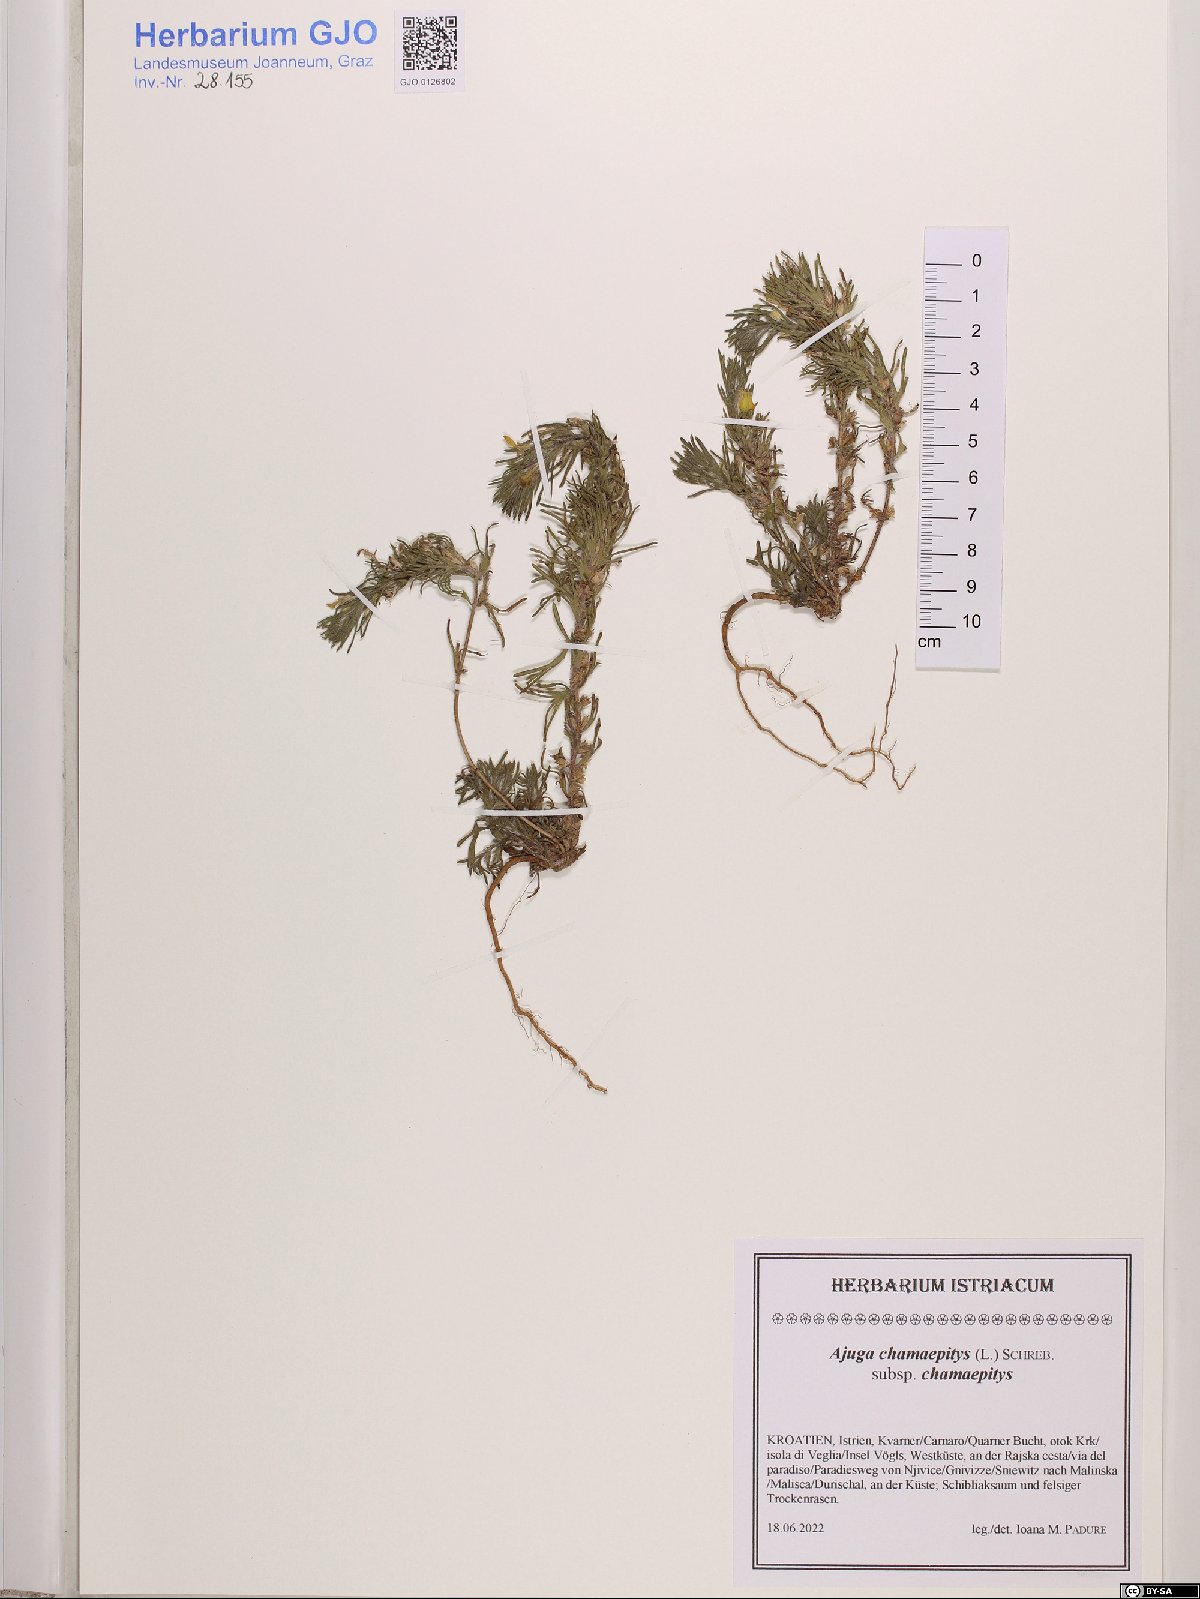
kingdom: Plantae
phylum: Tracheophyta
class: Magnoliopsida
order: Lamiales
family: Lamiaceae
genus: Ajuga
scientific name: Ajuga chamaepitys
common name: Ground-pine
